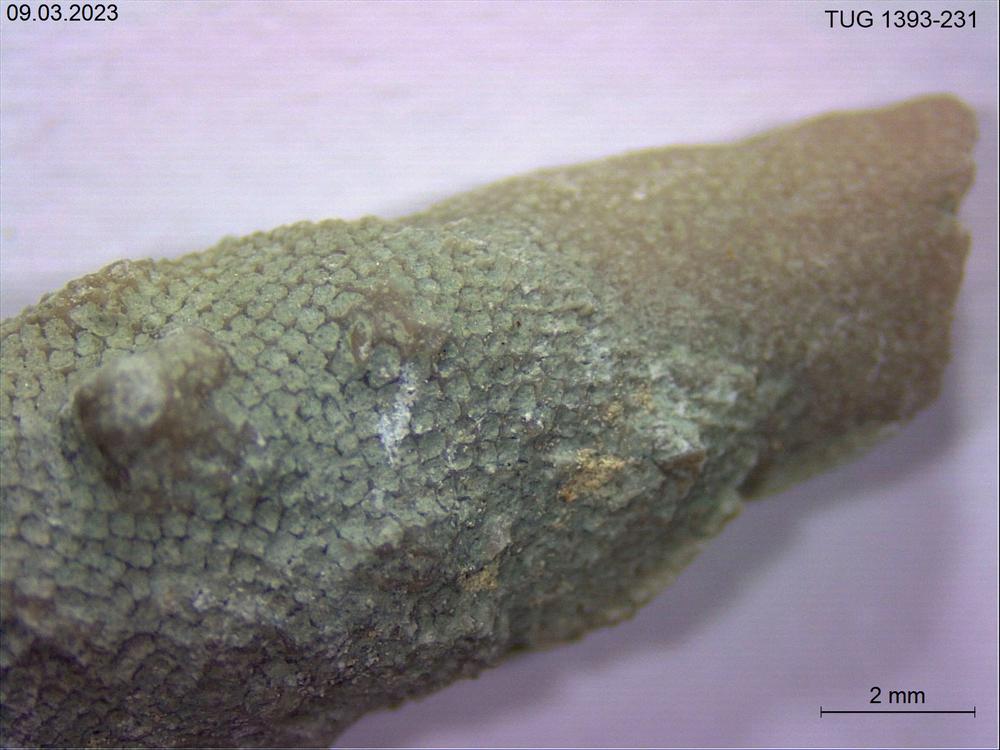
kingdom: Animalia
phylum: Bryozoa
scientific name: Bryozoa
